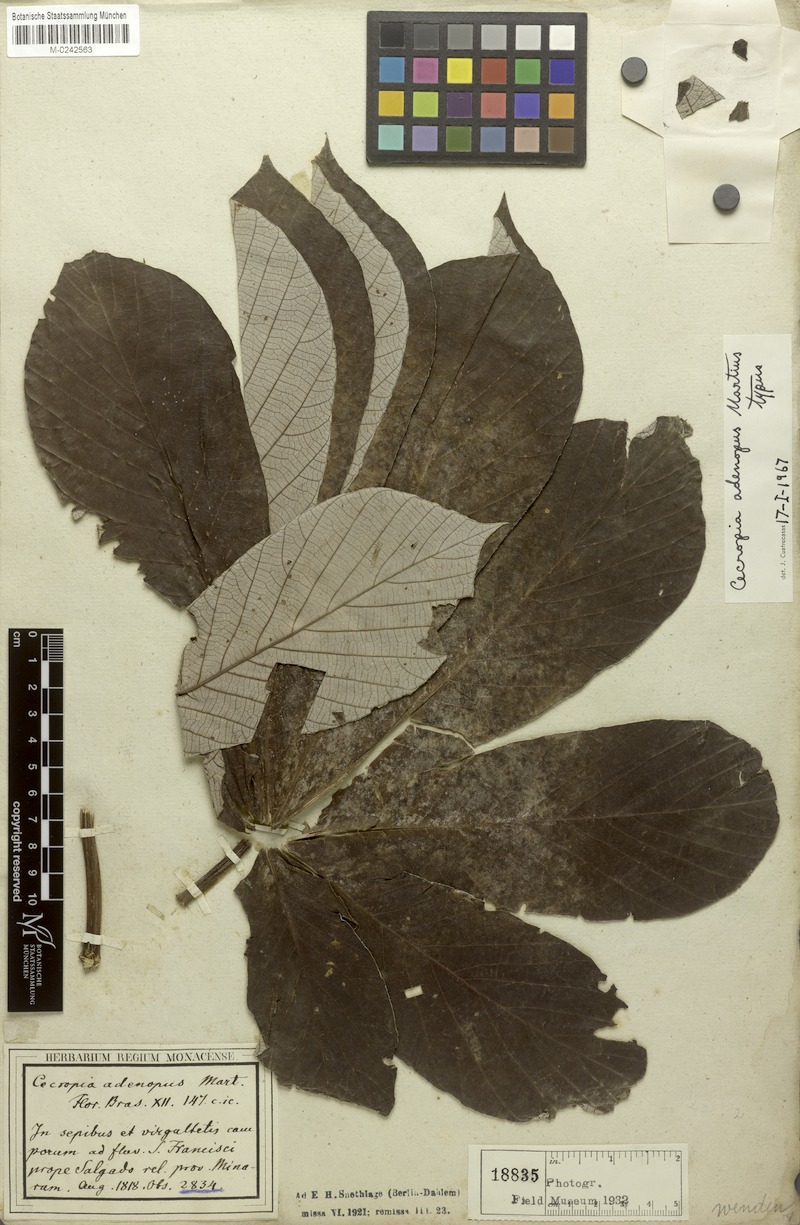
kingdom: Plantae
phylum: Tracheophyta
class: Magnoliopsida
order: Rosales
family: Urticaceae
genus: Cecropia
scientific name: Cecropia pachystachya
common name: Ambay pumpwood
